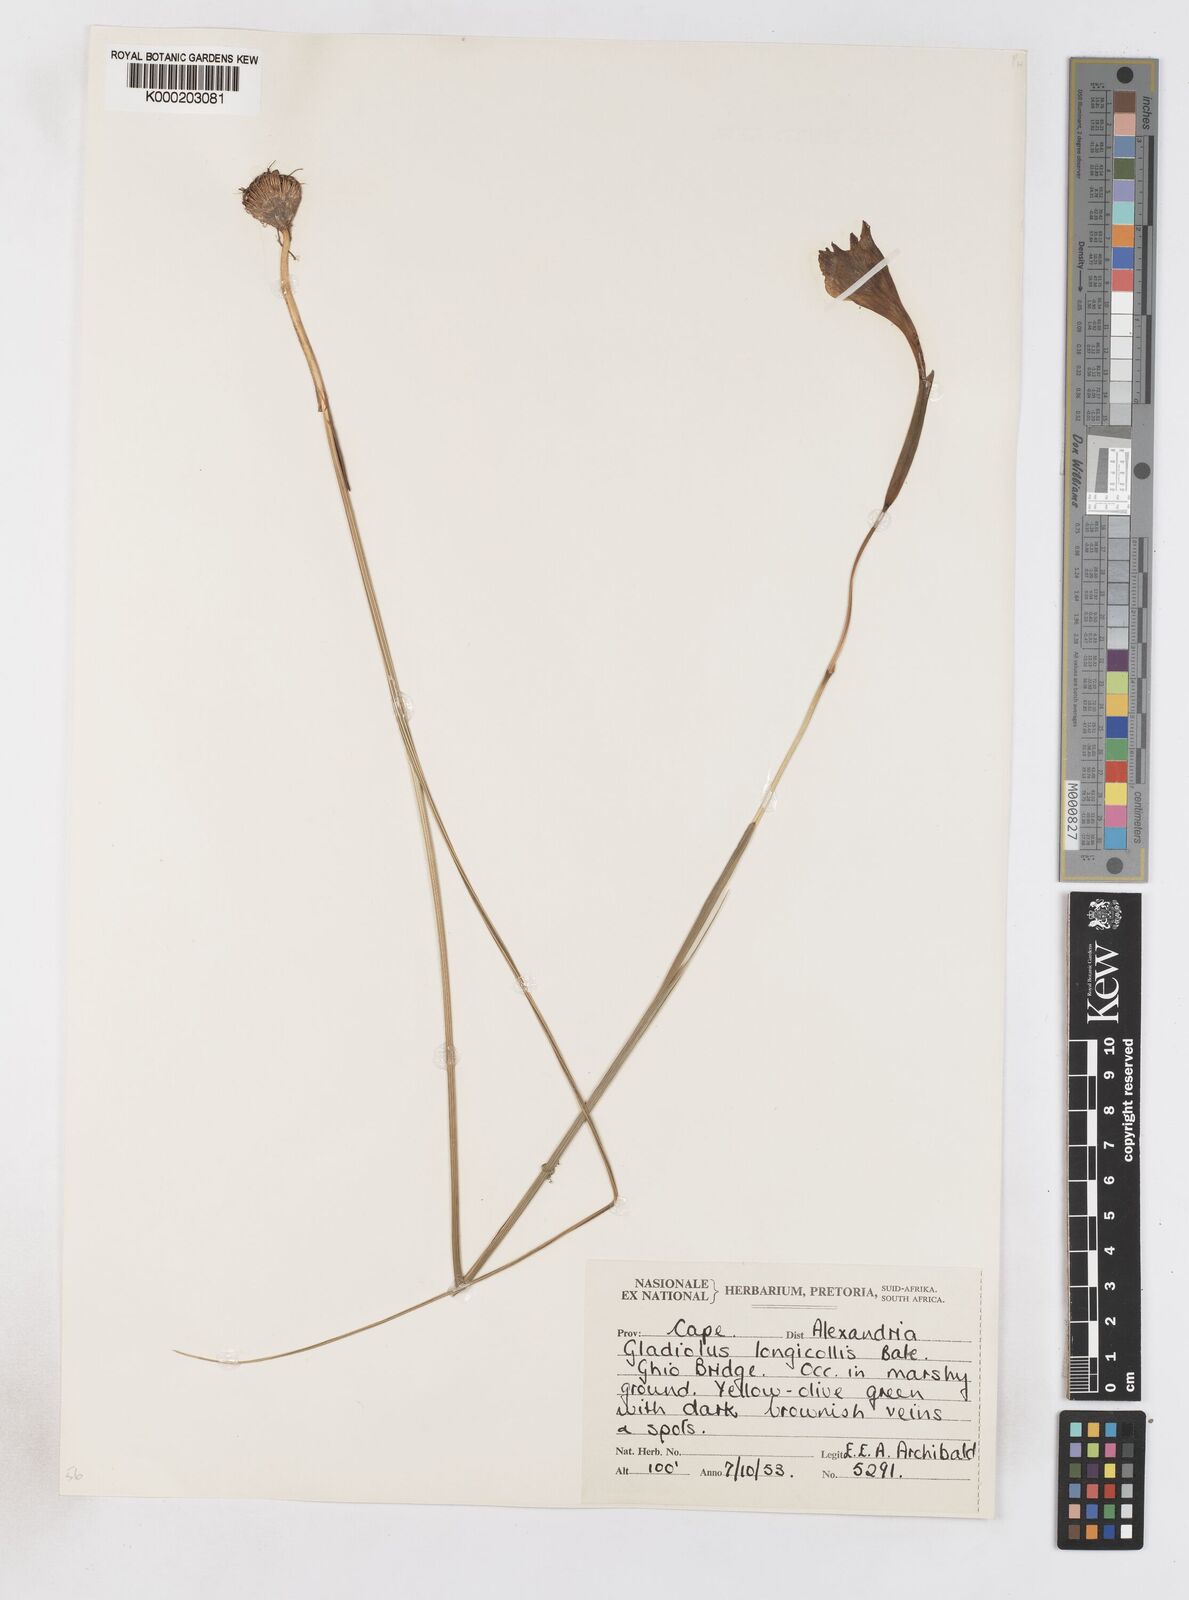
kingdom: Plantae
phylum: Tracheophyta
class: Liliopsida
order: Asparagales
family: Iridaceae
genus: Gladiolus
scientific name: Gladiolus longicollis
